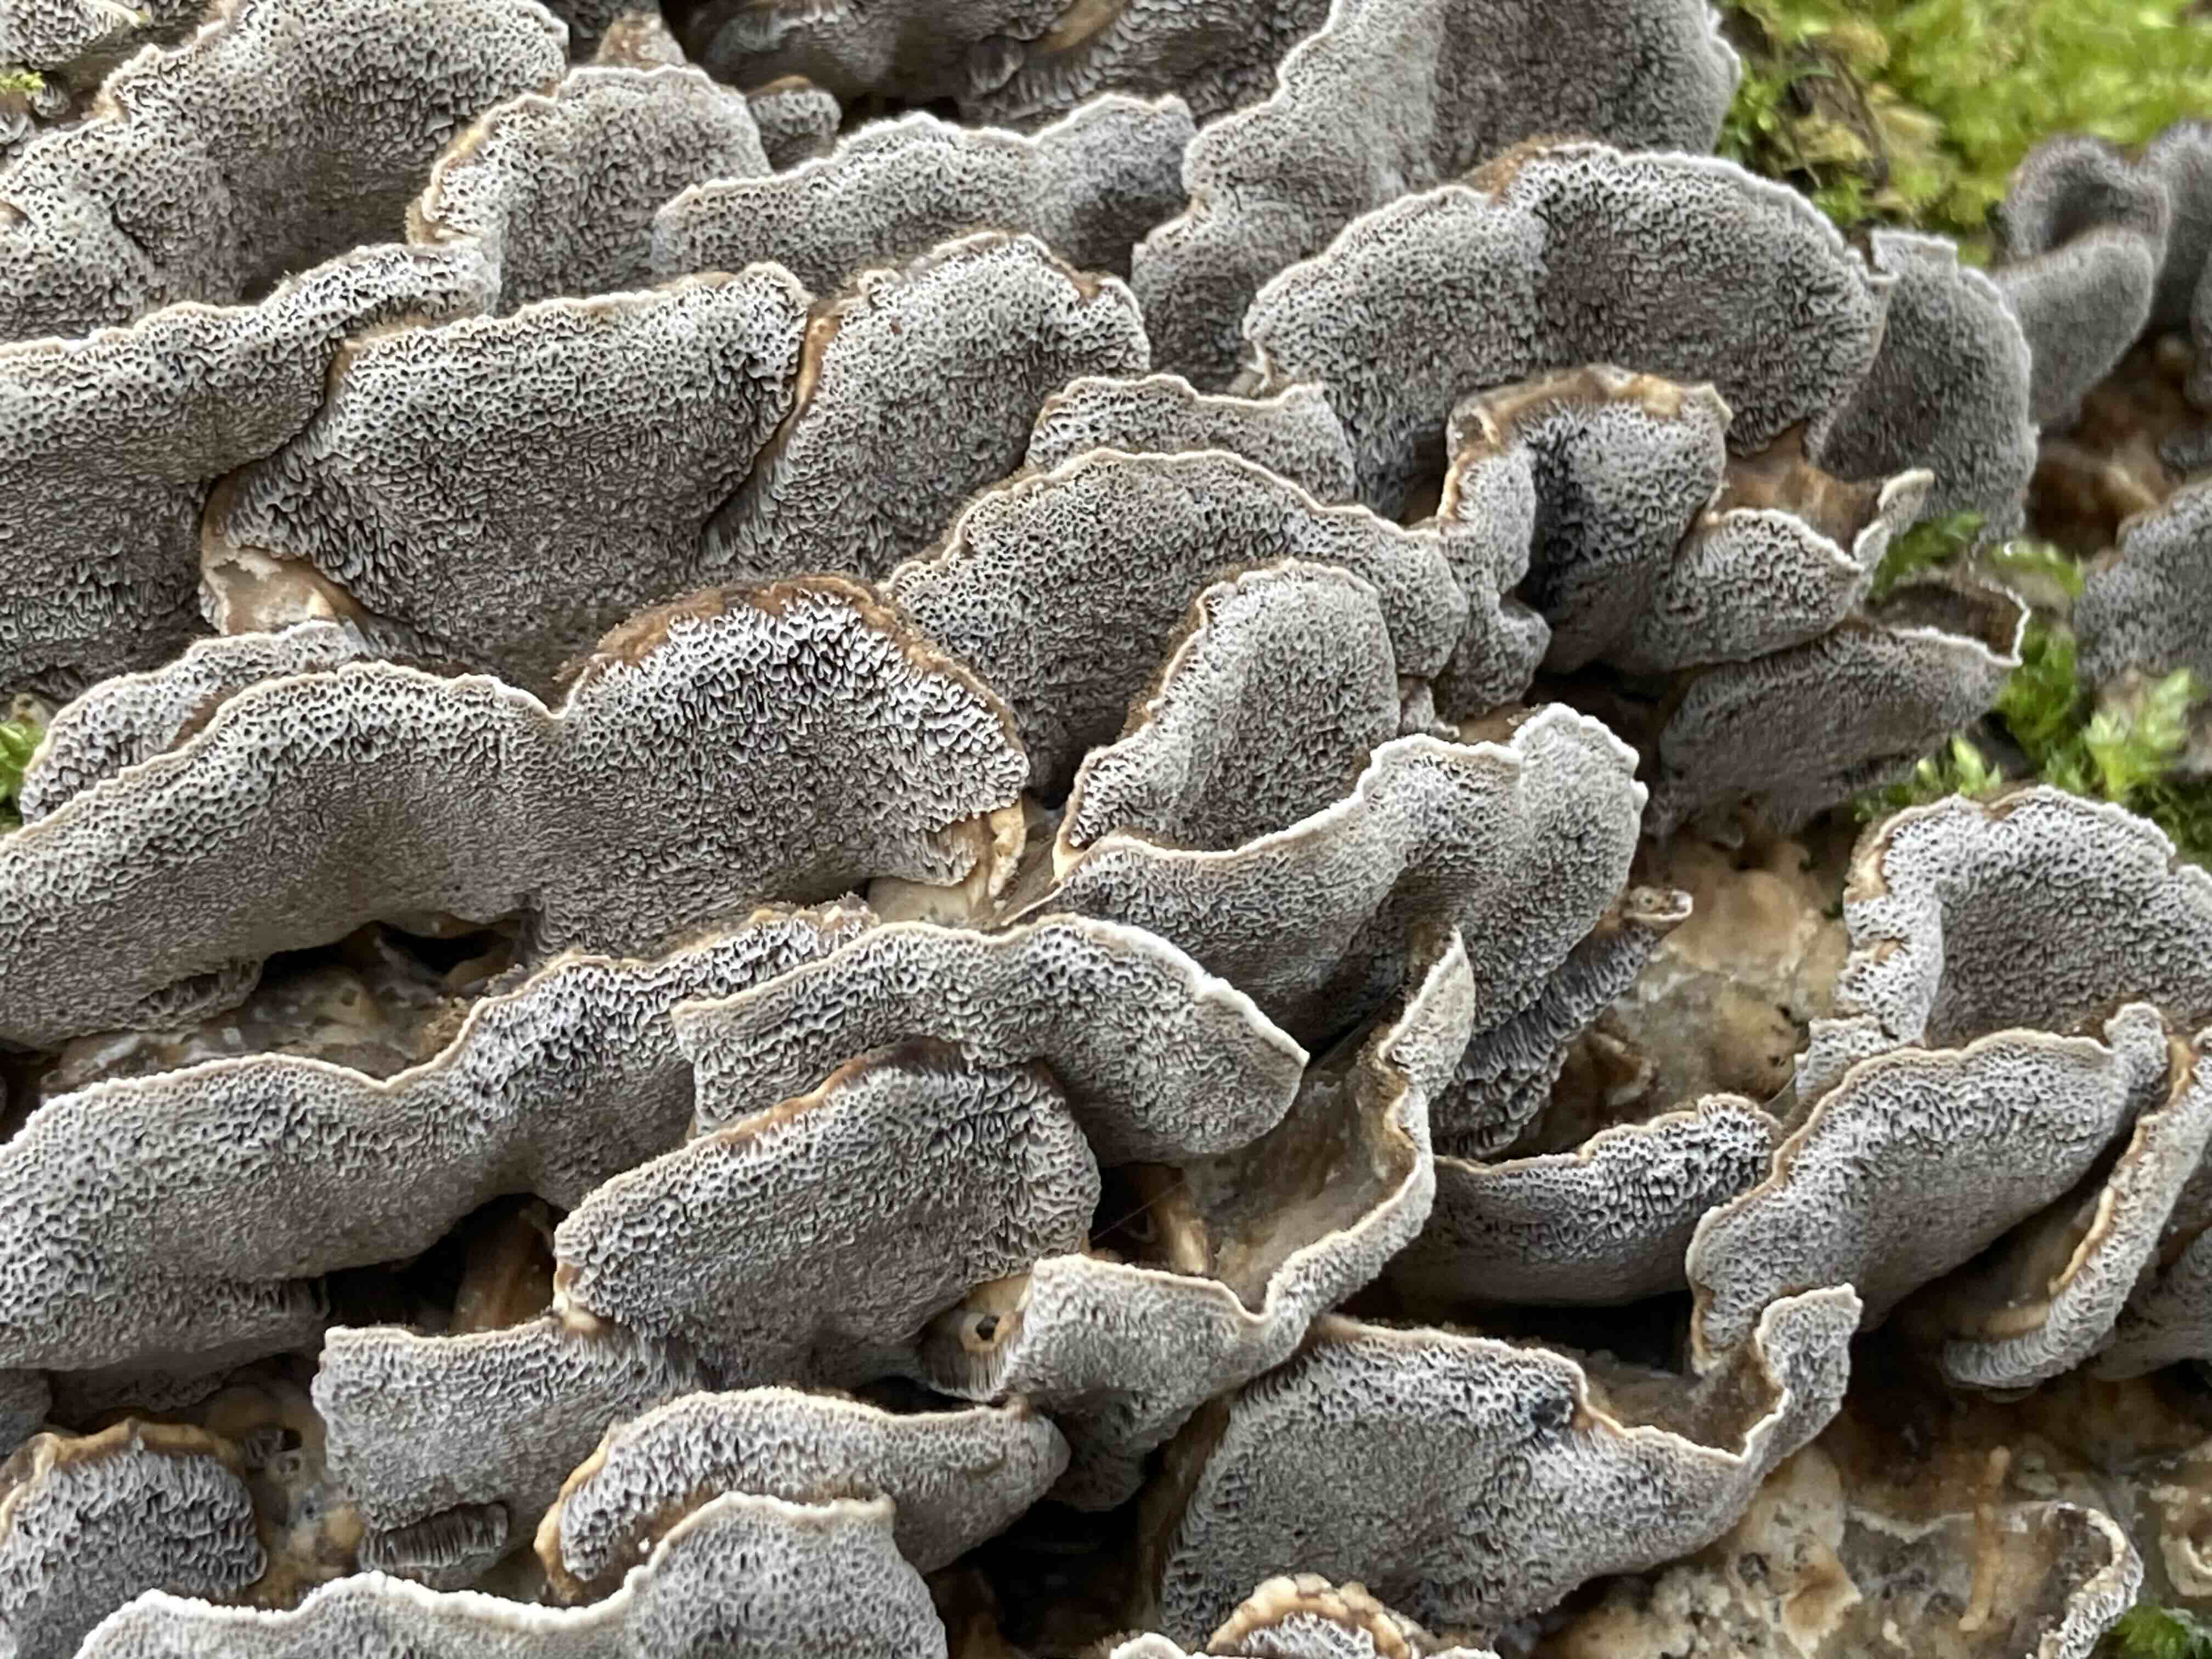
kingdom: Fungi
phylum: Basidiomycota
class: Agaricomycetes
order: Polyporales
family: Phanerochaetaceae
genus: Bjerkandera
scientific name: Bjerkandera adusta
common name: sveden sodporesvamp
